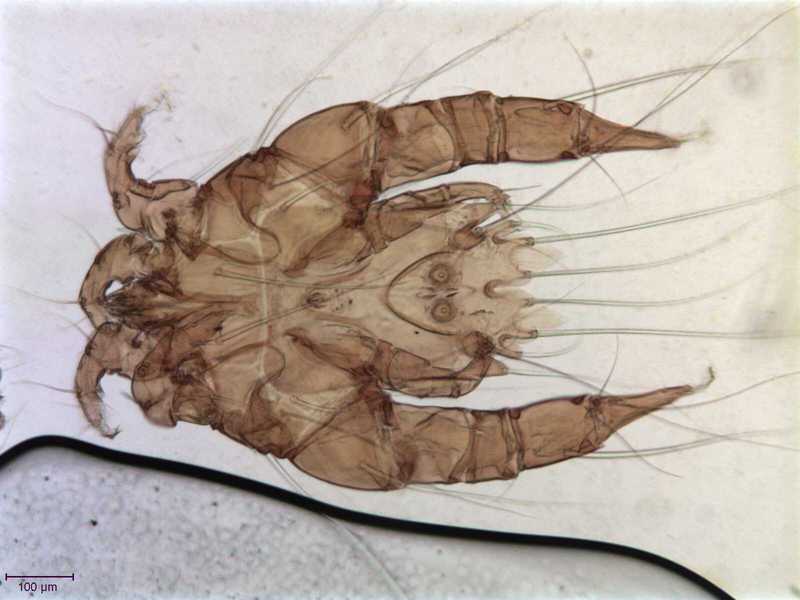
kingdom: Animalia
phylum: Arthropoda
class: Arachnida
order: Sarcoptiformes
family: Psoroptoididae
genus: Mesalges
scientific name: Mesalges
